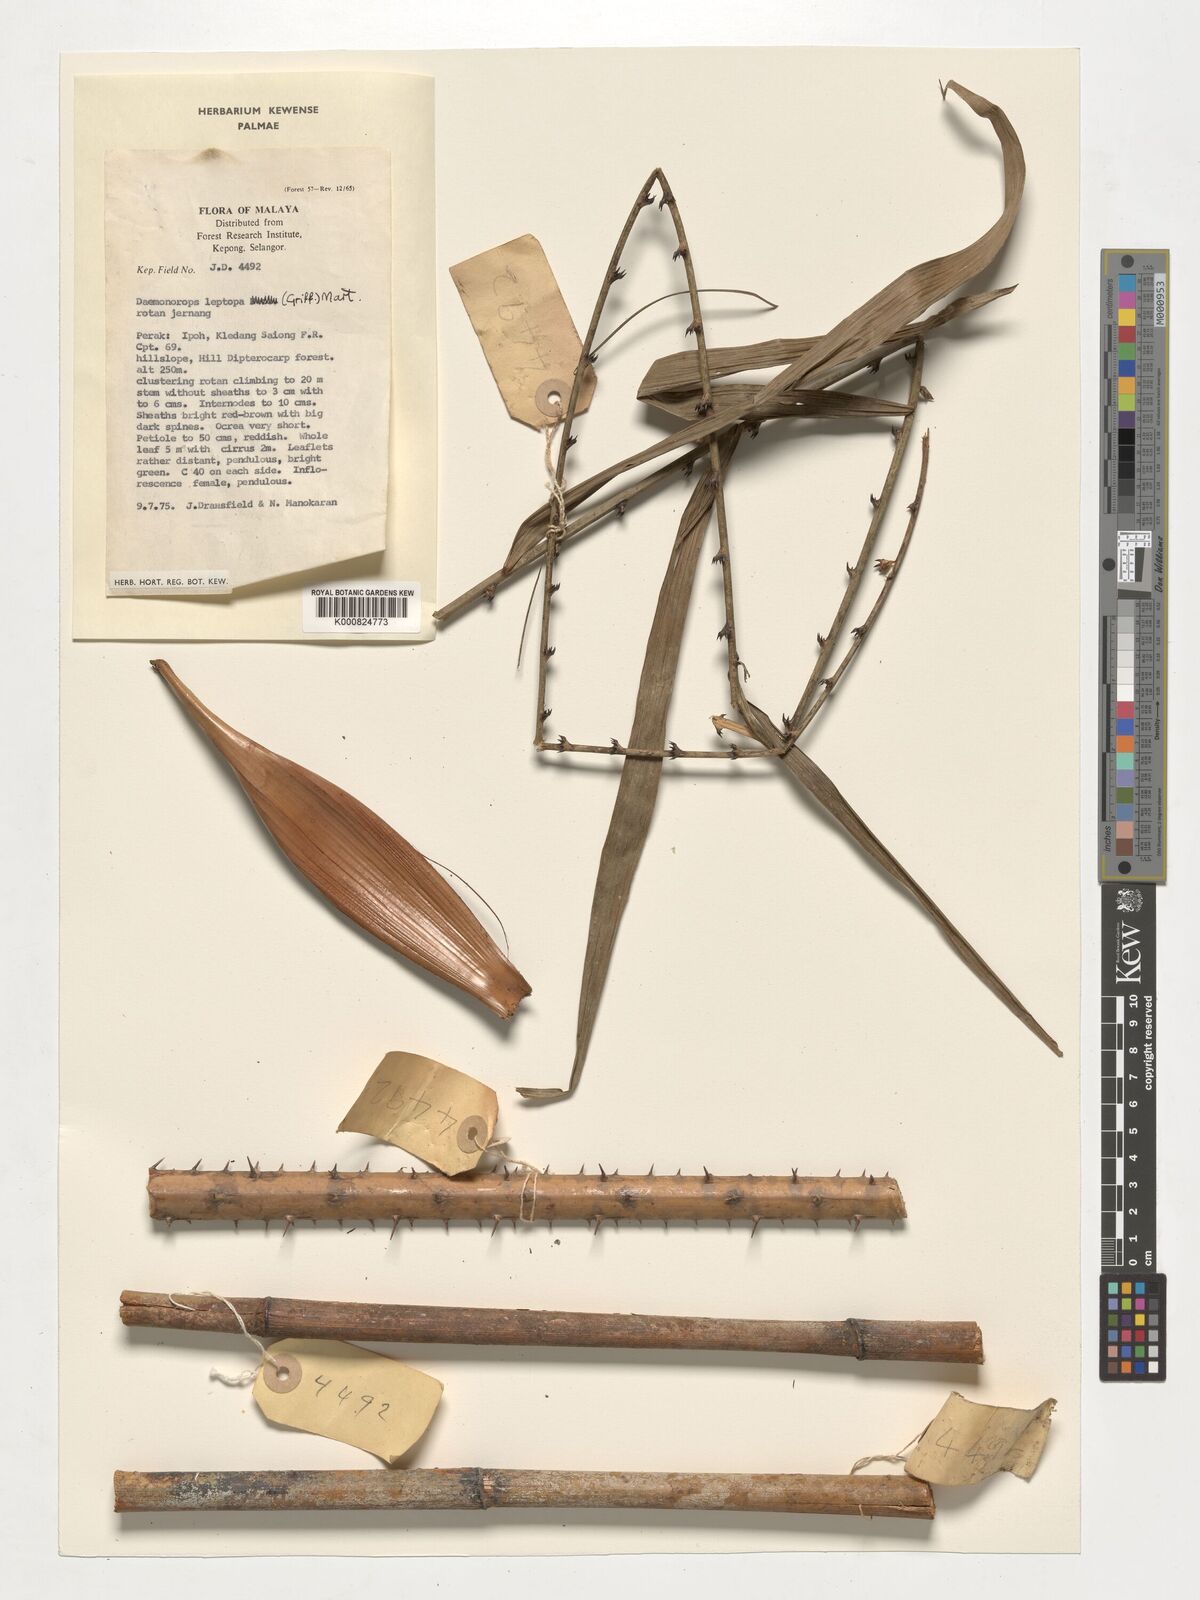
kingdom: Plantae
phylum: Tracheophyta
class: Liliopsida
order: Arecales
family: Arecaceae
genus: Calamus
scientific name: Calamus leptopus
